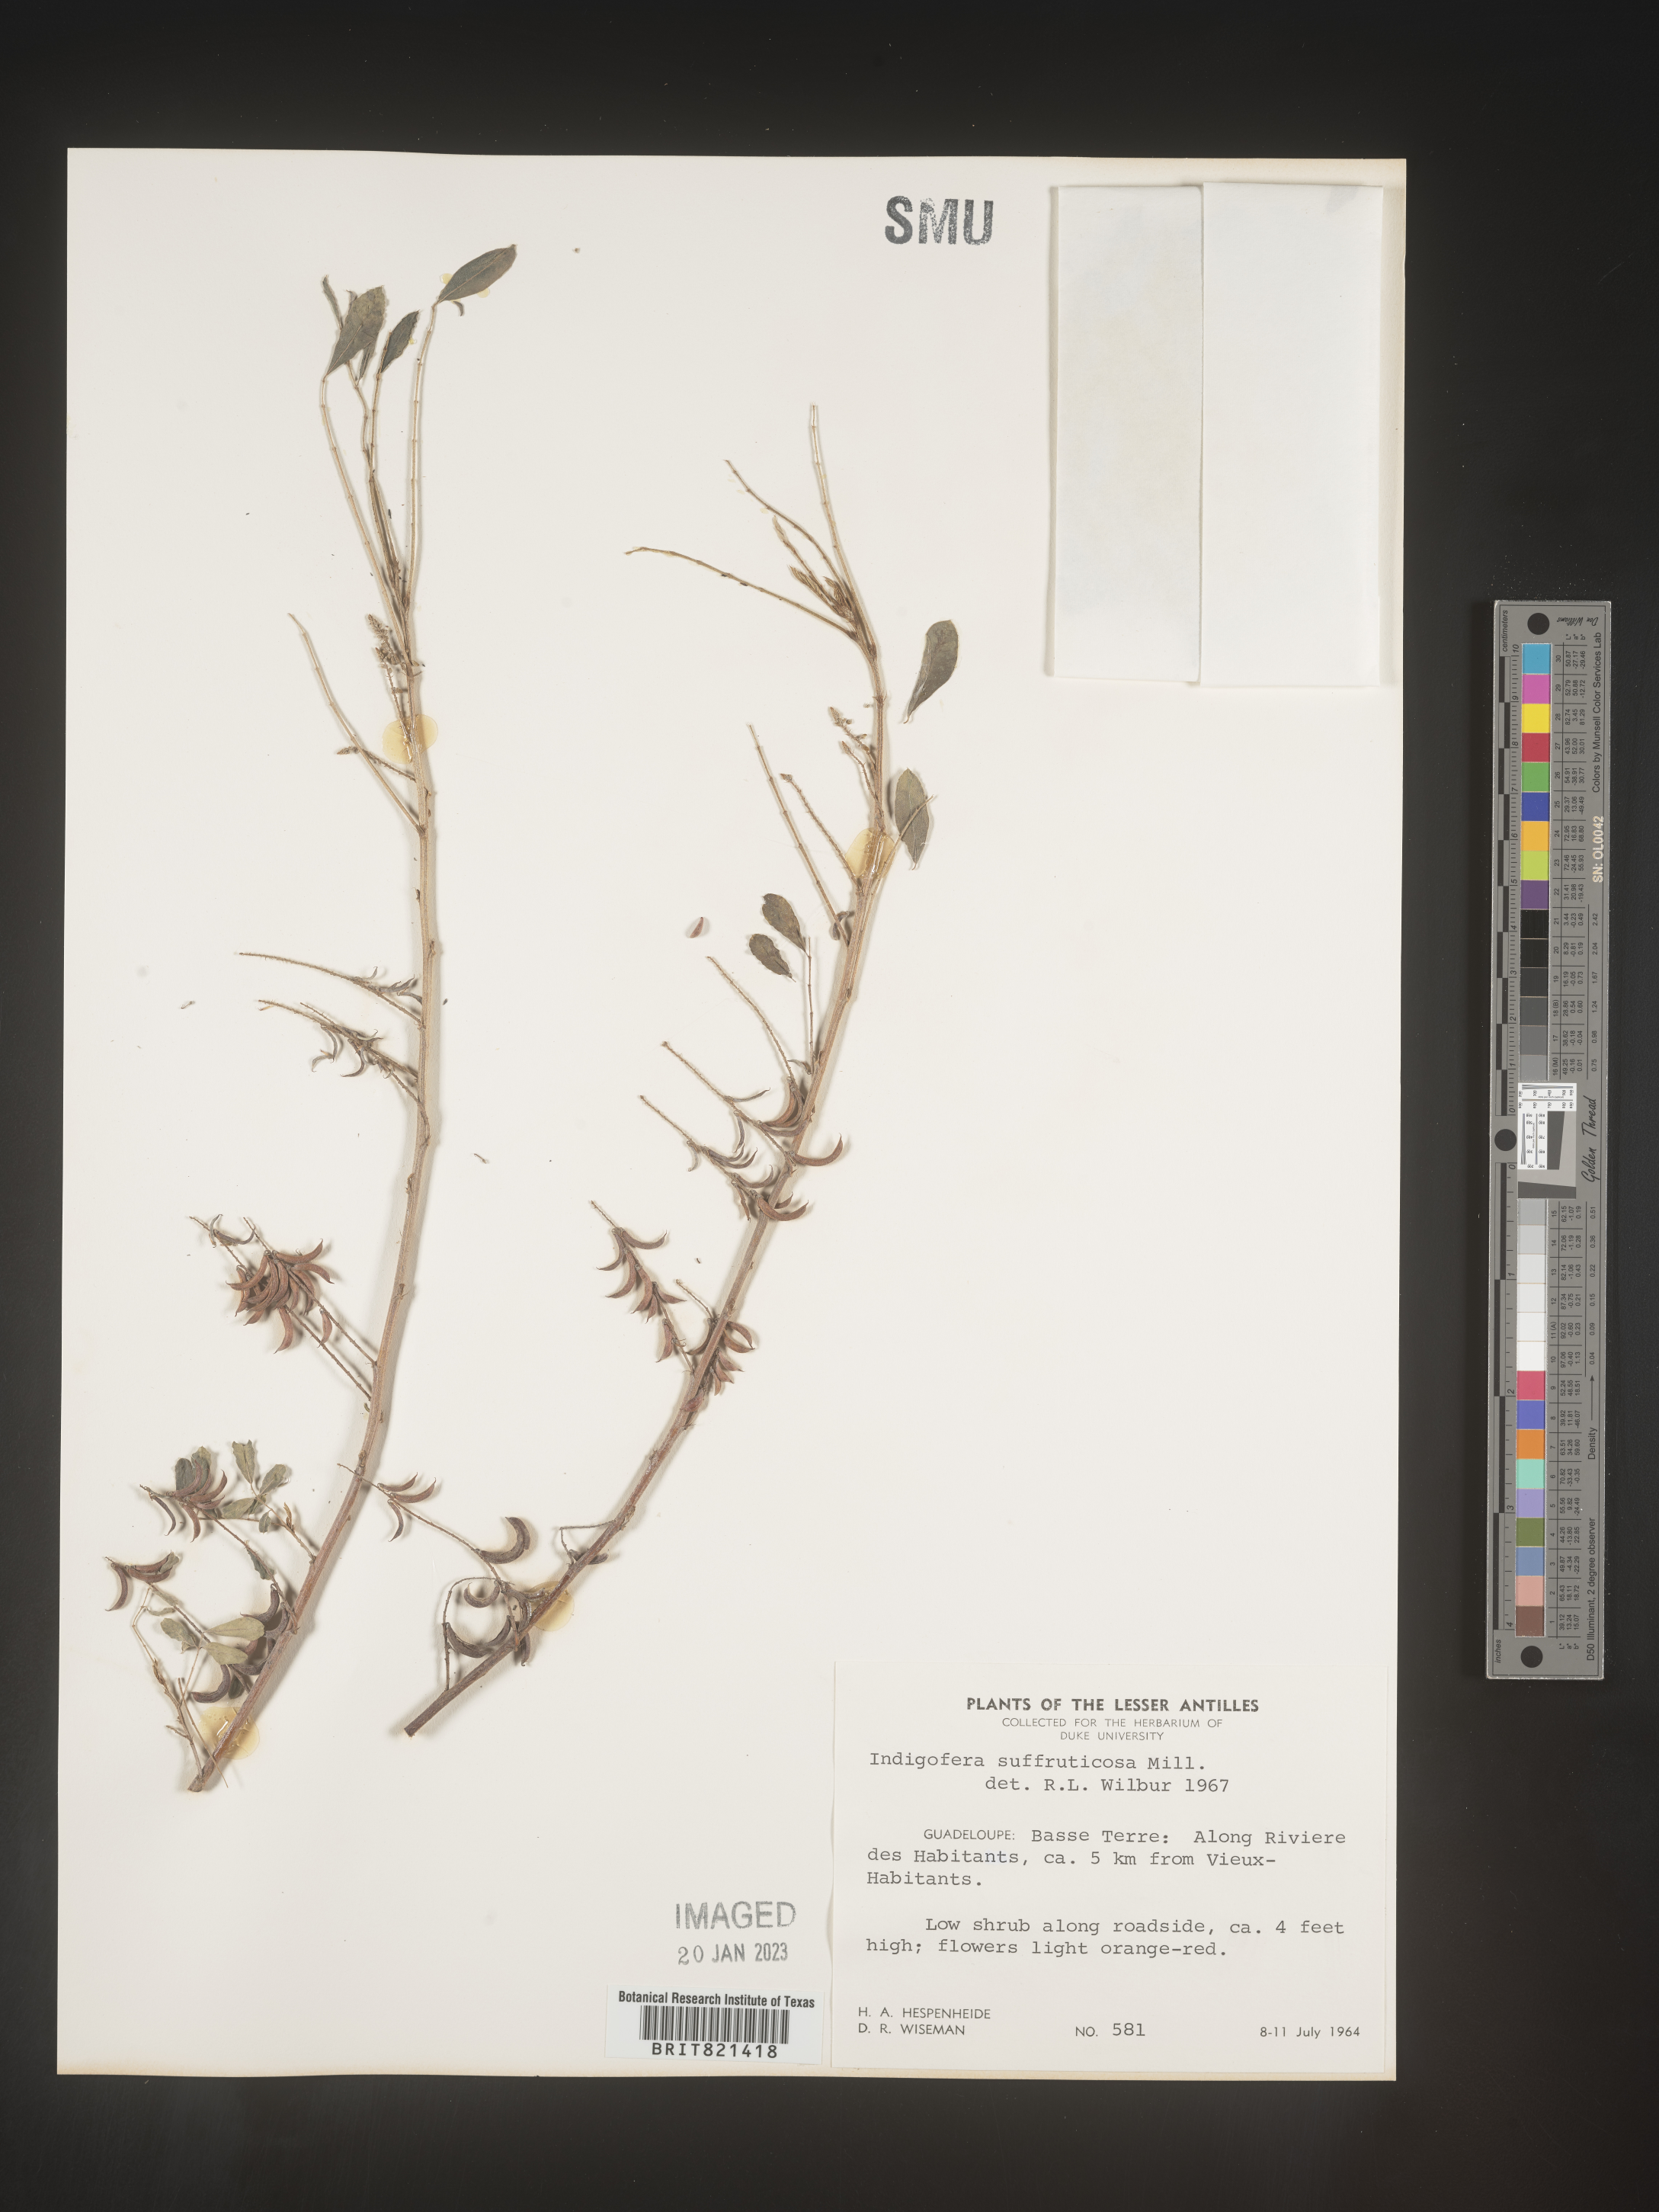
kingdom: Plantae
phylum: Tracheophyta
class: Magnoliopsida
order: Fabales
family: Fabaceae
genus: Indigofera
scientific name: Indigofera
